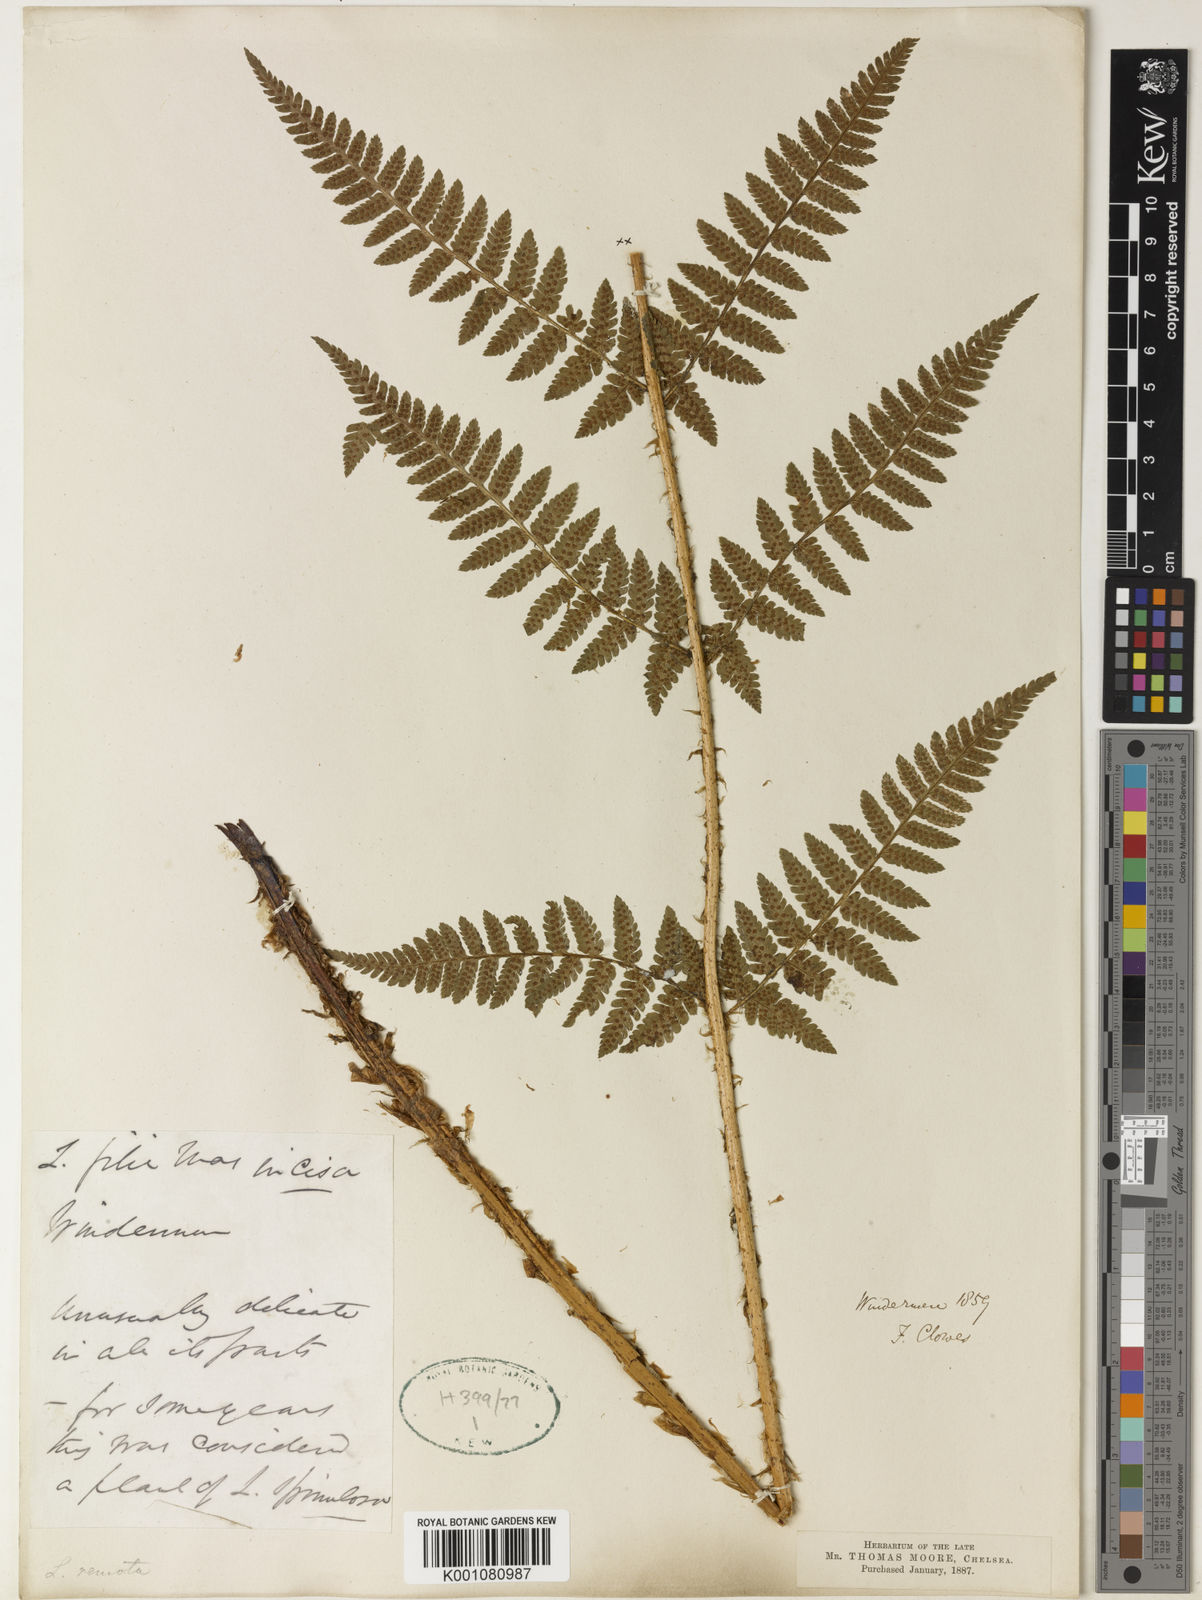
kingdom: Plantae
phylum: Tracheophyta
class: Polypodiopsida
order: Polypodiales
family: Dryopteridaceae
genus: Dryopteris
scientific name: Dryopteris filix-mas
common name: Male fern
